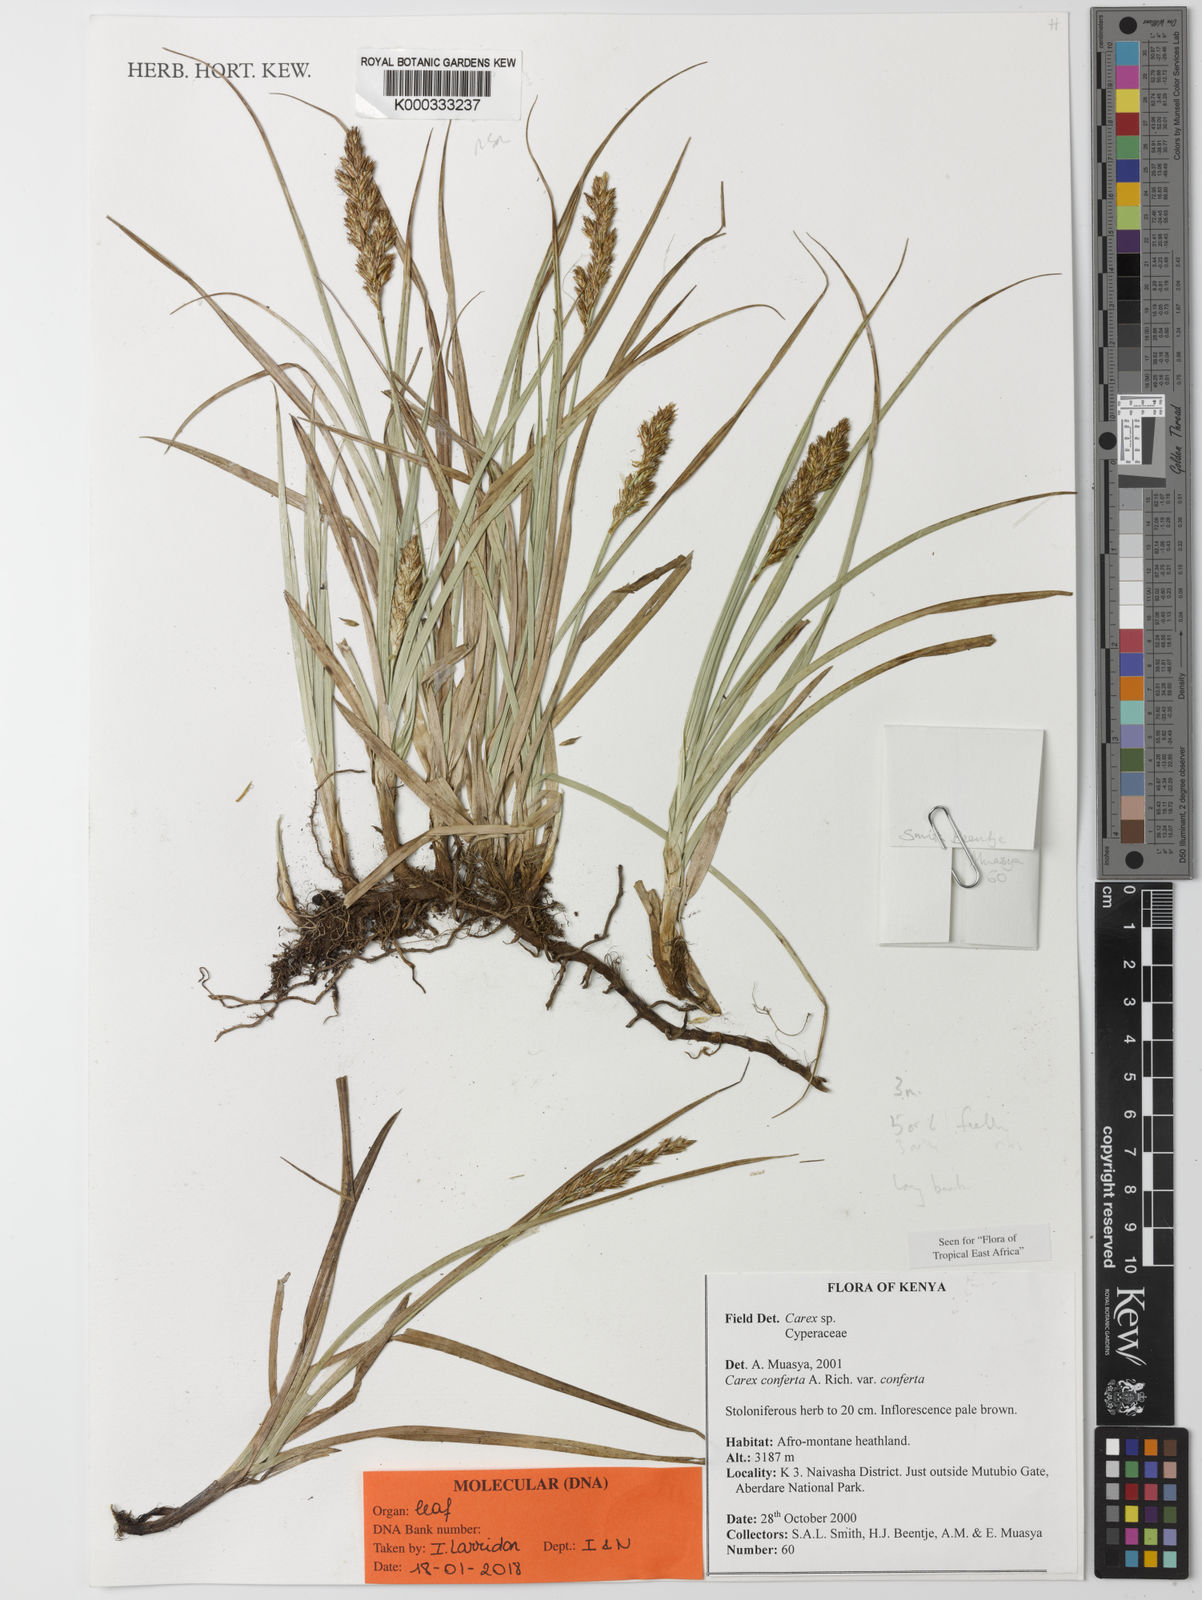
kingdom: Plantae
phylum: Tracheophyta
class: Liliopsida
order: Poales
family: Cyperaceae
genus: Carex
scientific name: Carex conferta
